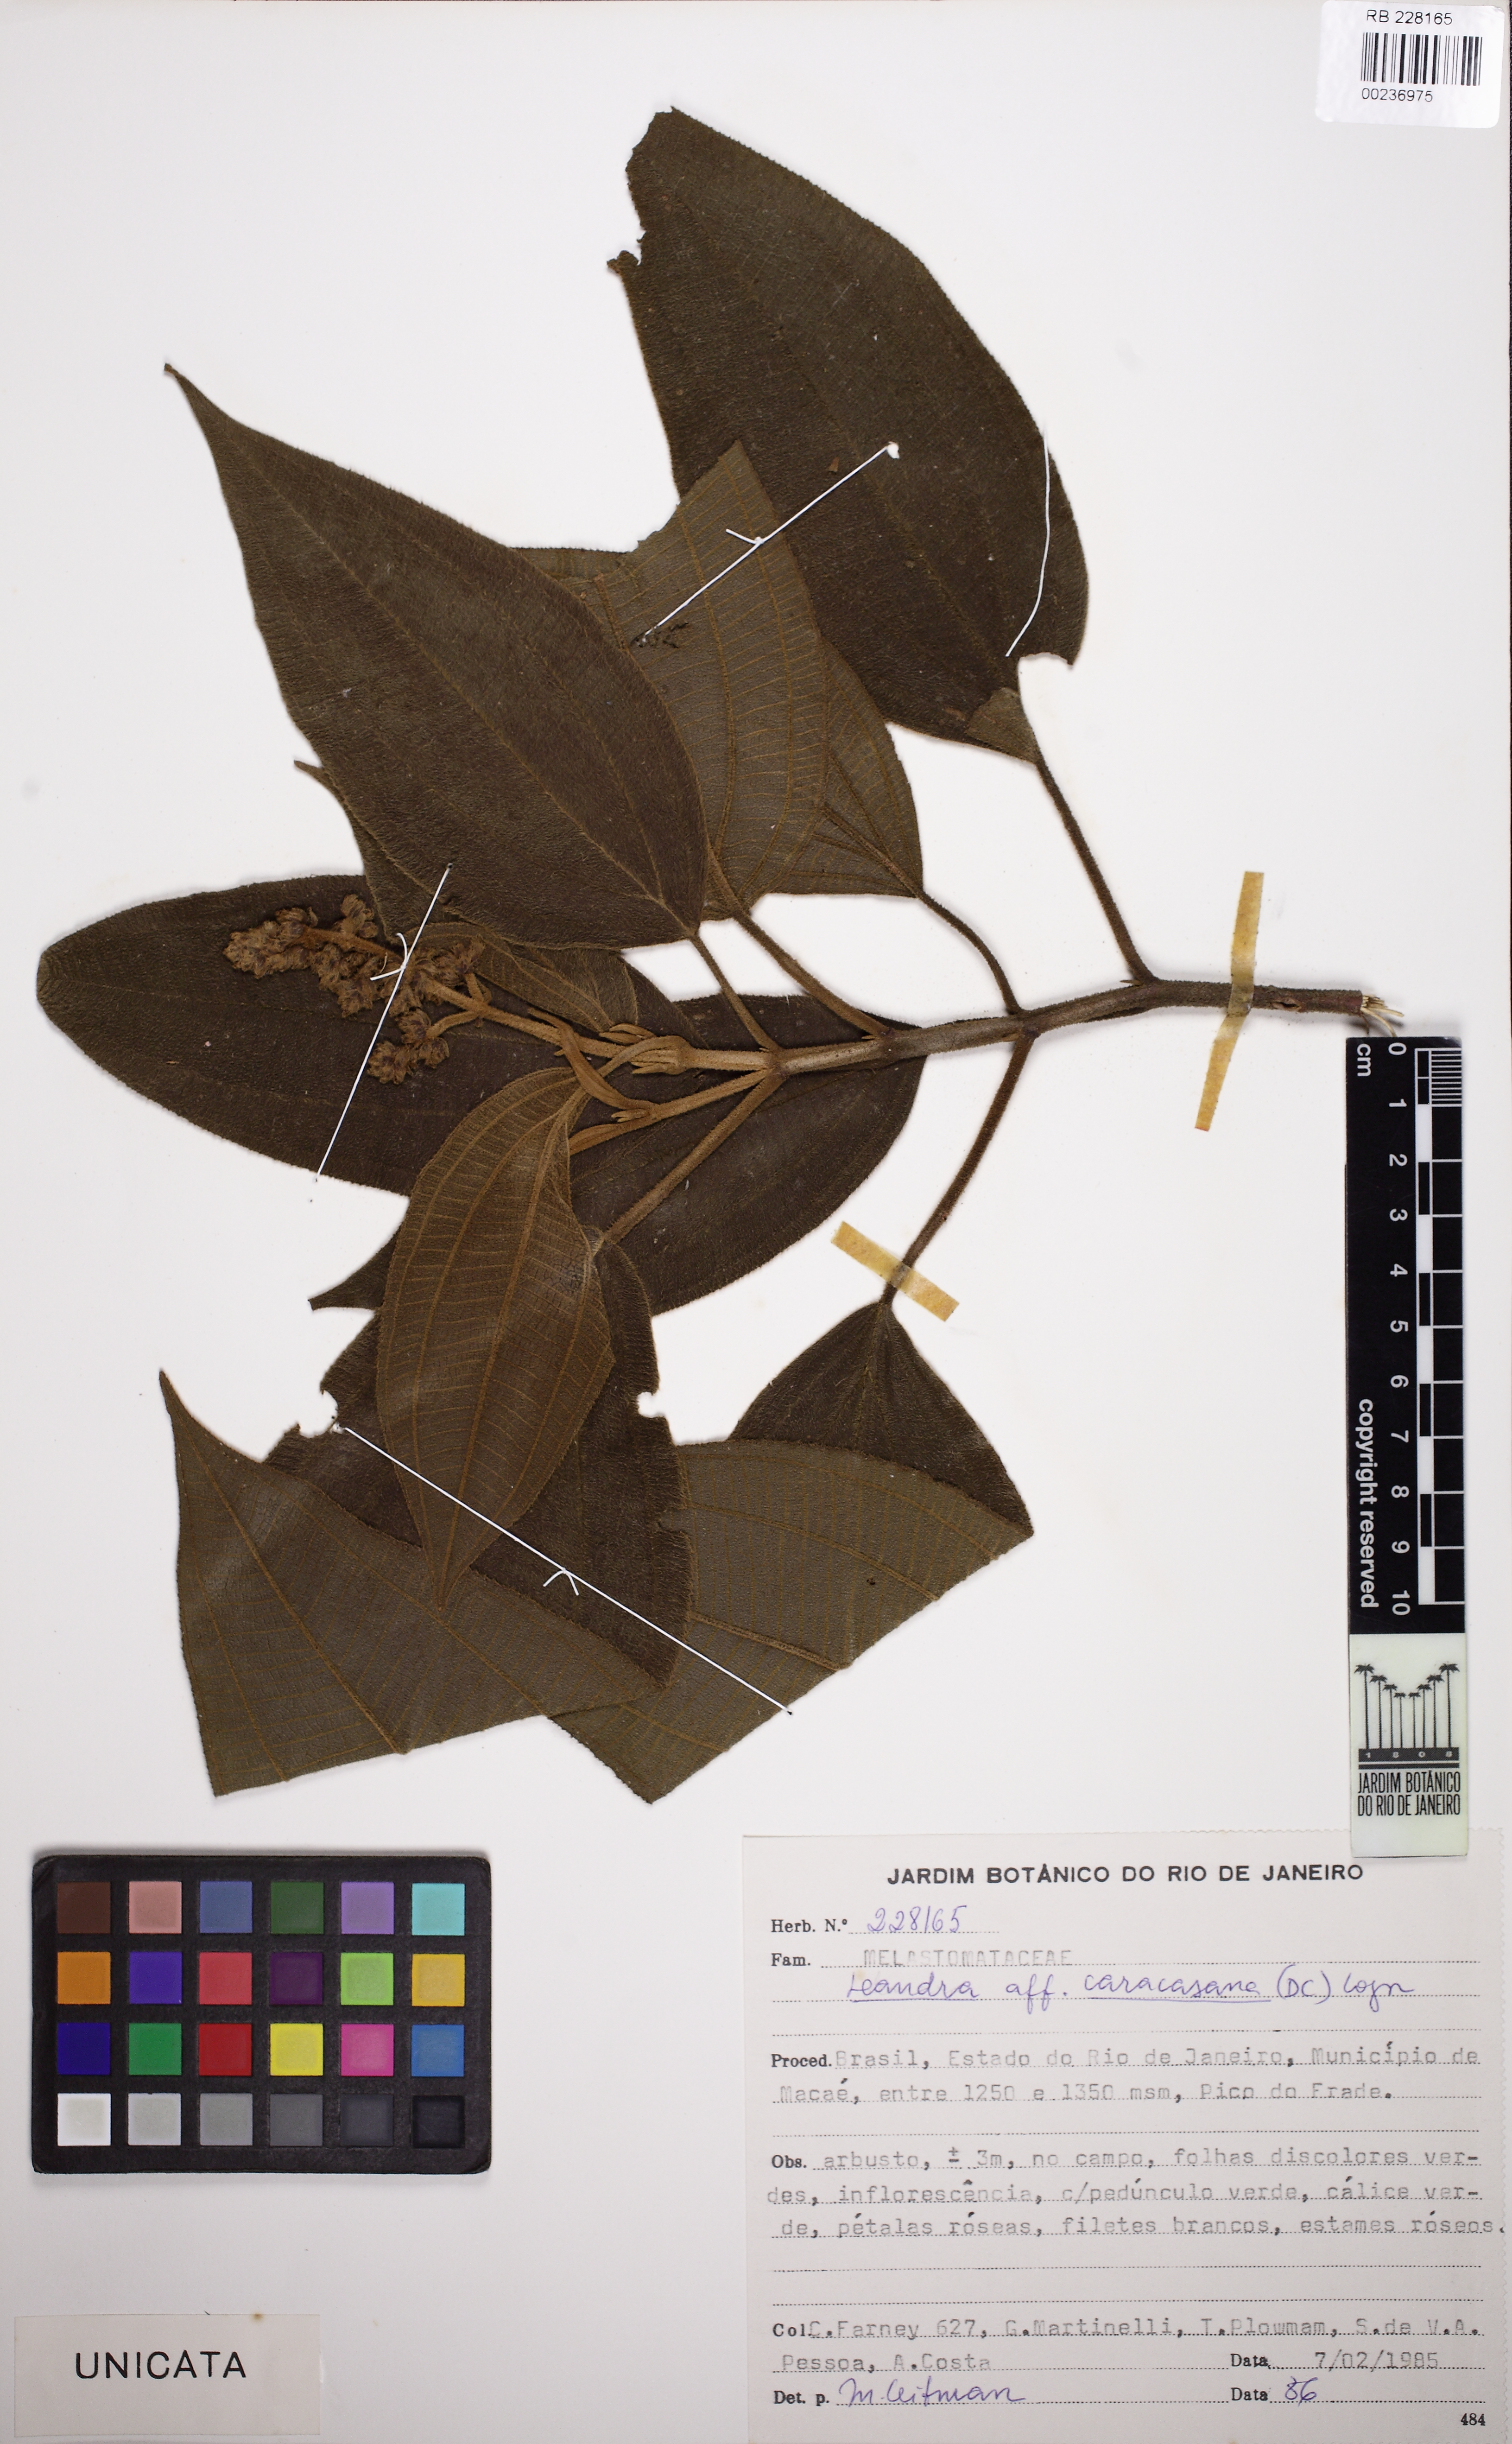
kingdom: Plantae
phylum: Tracheophyta
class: Magnoliopsida
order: Myrtales
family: Melastomataceae
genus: Miconia
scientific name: Miconia sublanata
